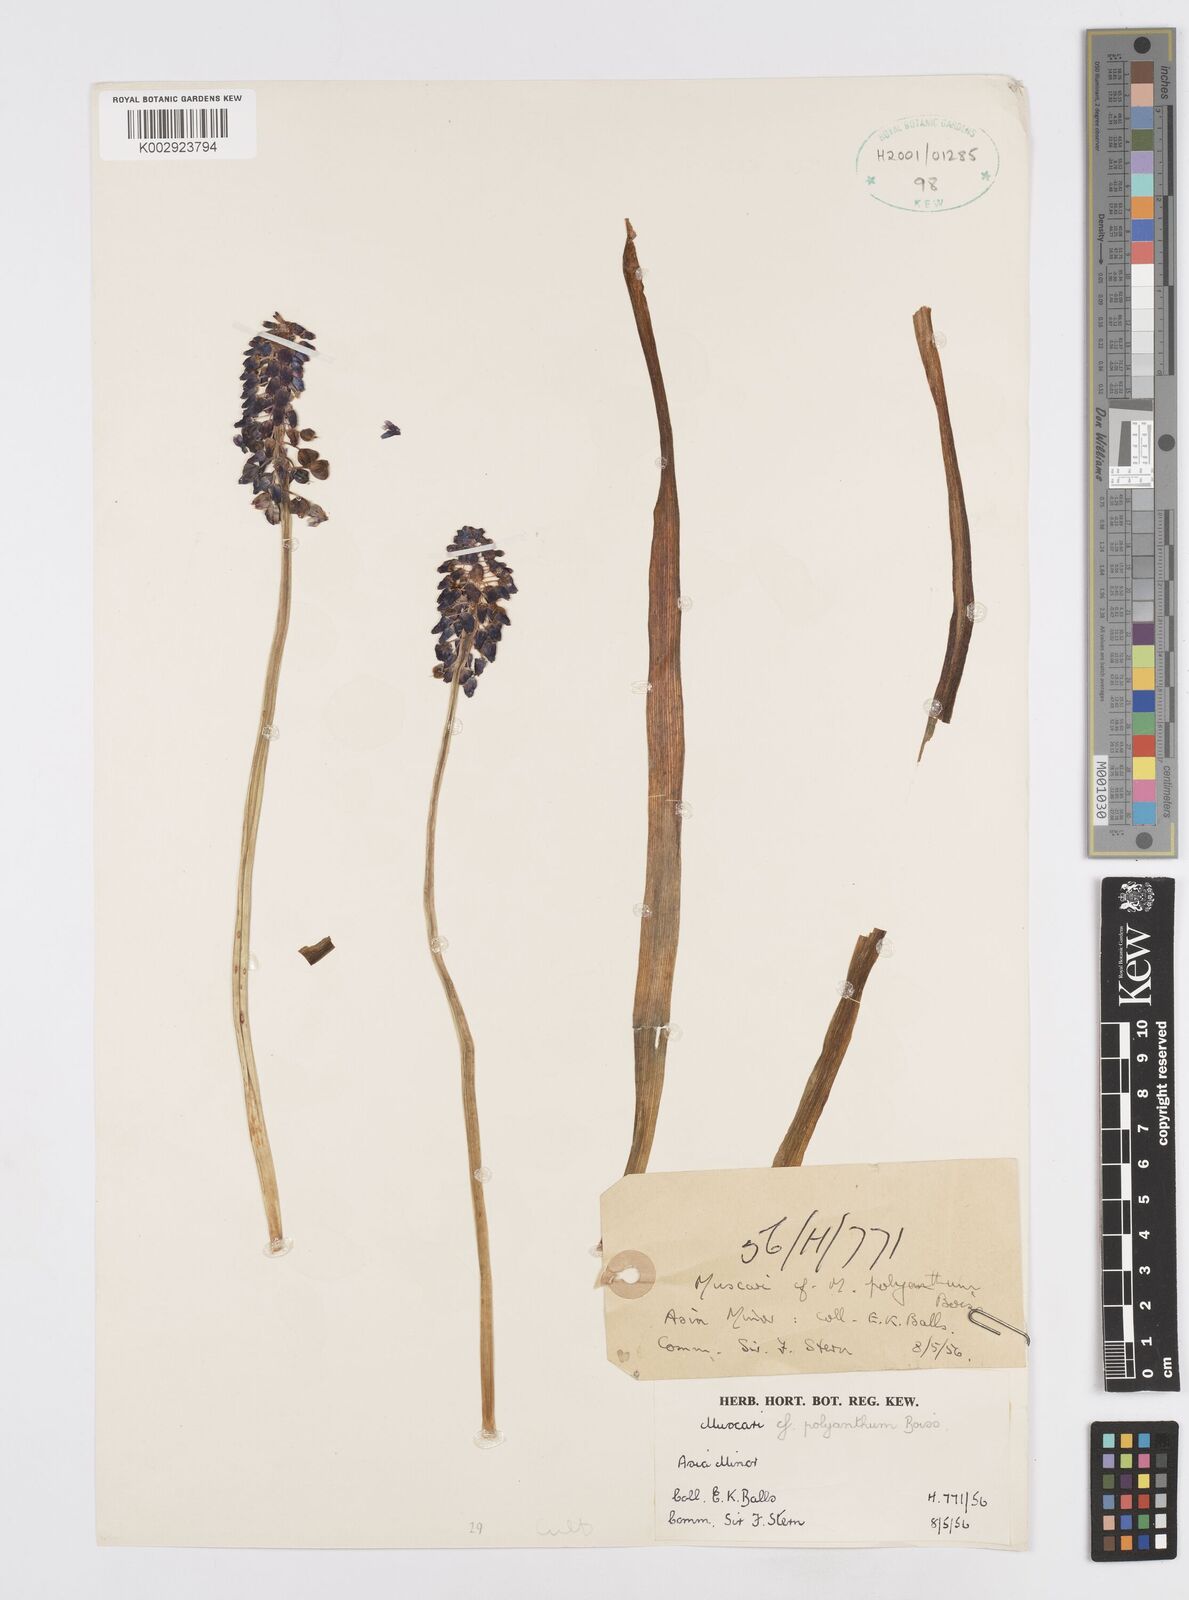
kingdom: Plantae
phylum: Tracheophyta
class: Liliopsida
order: Asparagales
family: Asparagaceae
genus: Muscari
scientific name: Muscari armeniacum
